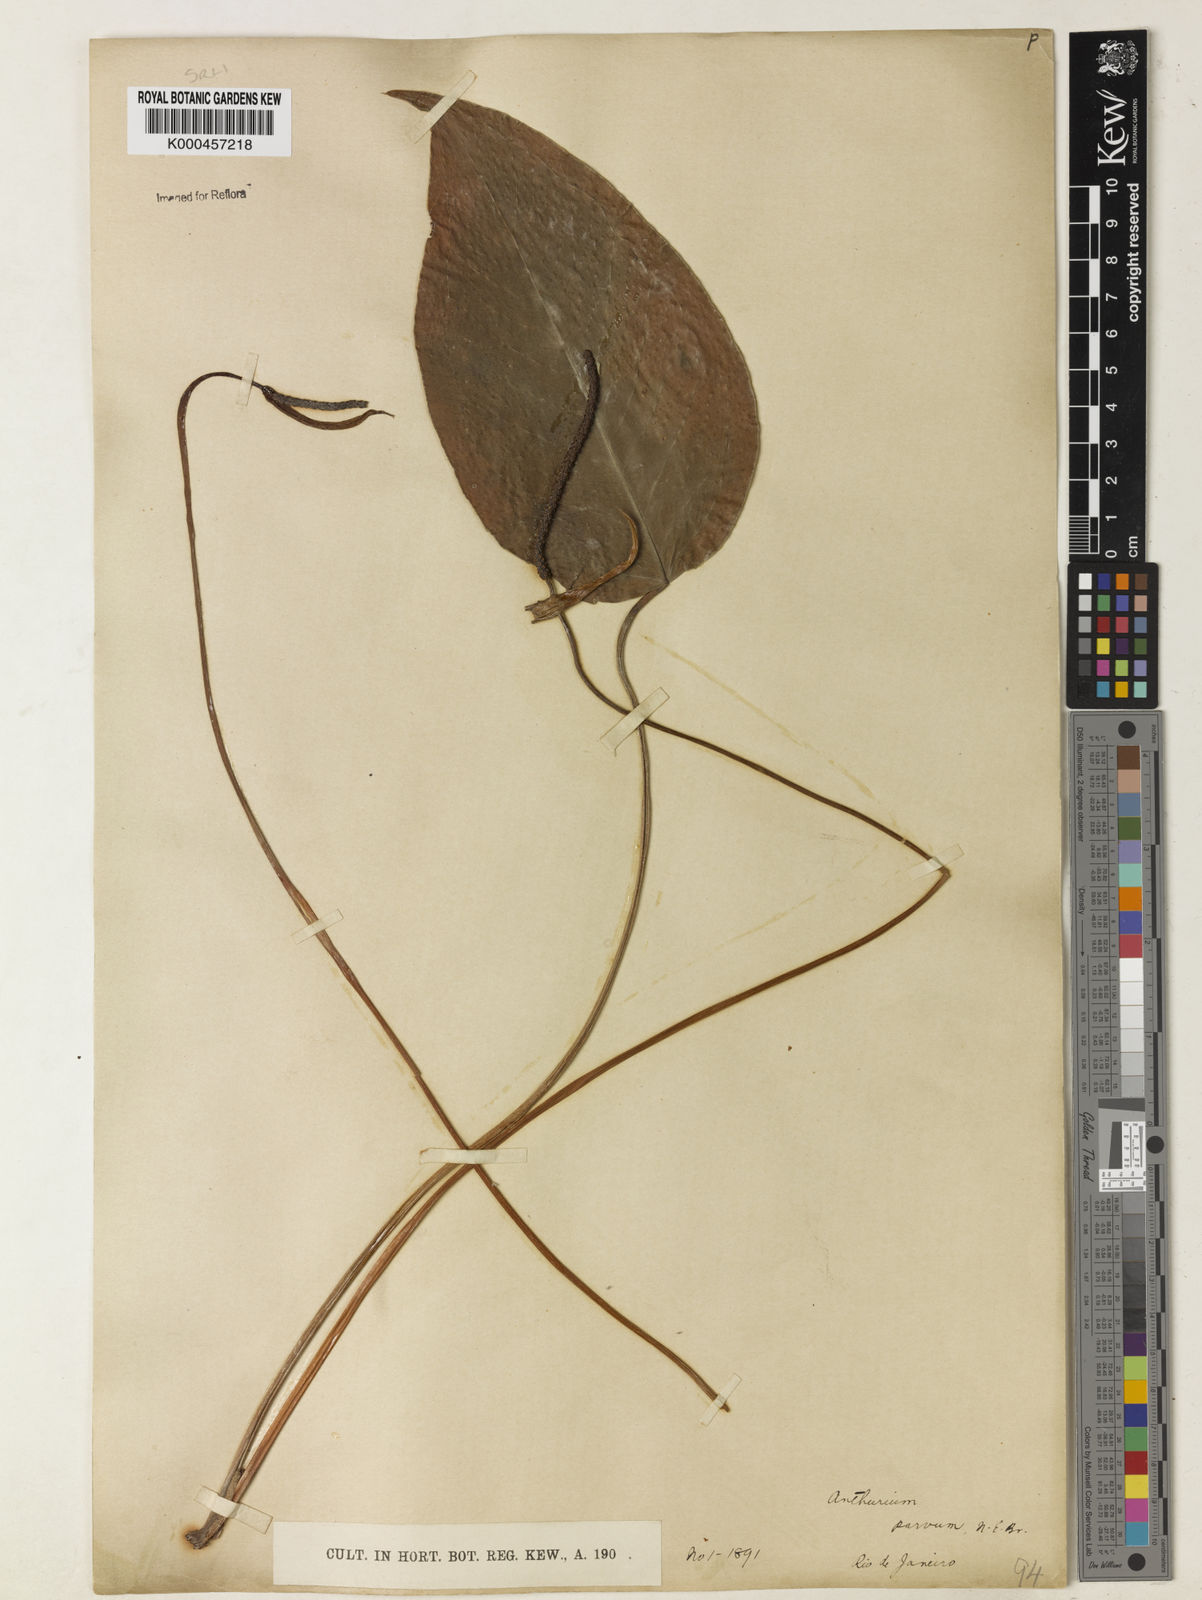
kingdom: Plantae
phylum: Tracheophyta
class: Liliopsida
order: Alismatales
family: Araceae
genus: Anthurium
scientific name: Anthurium augustinum
